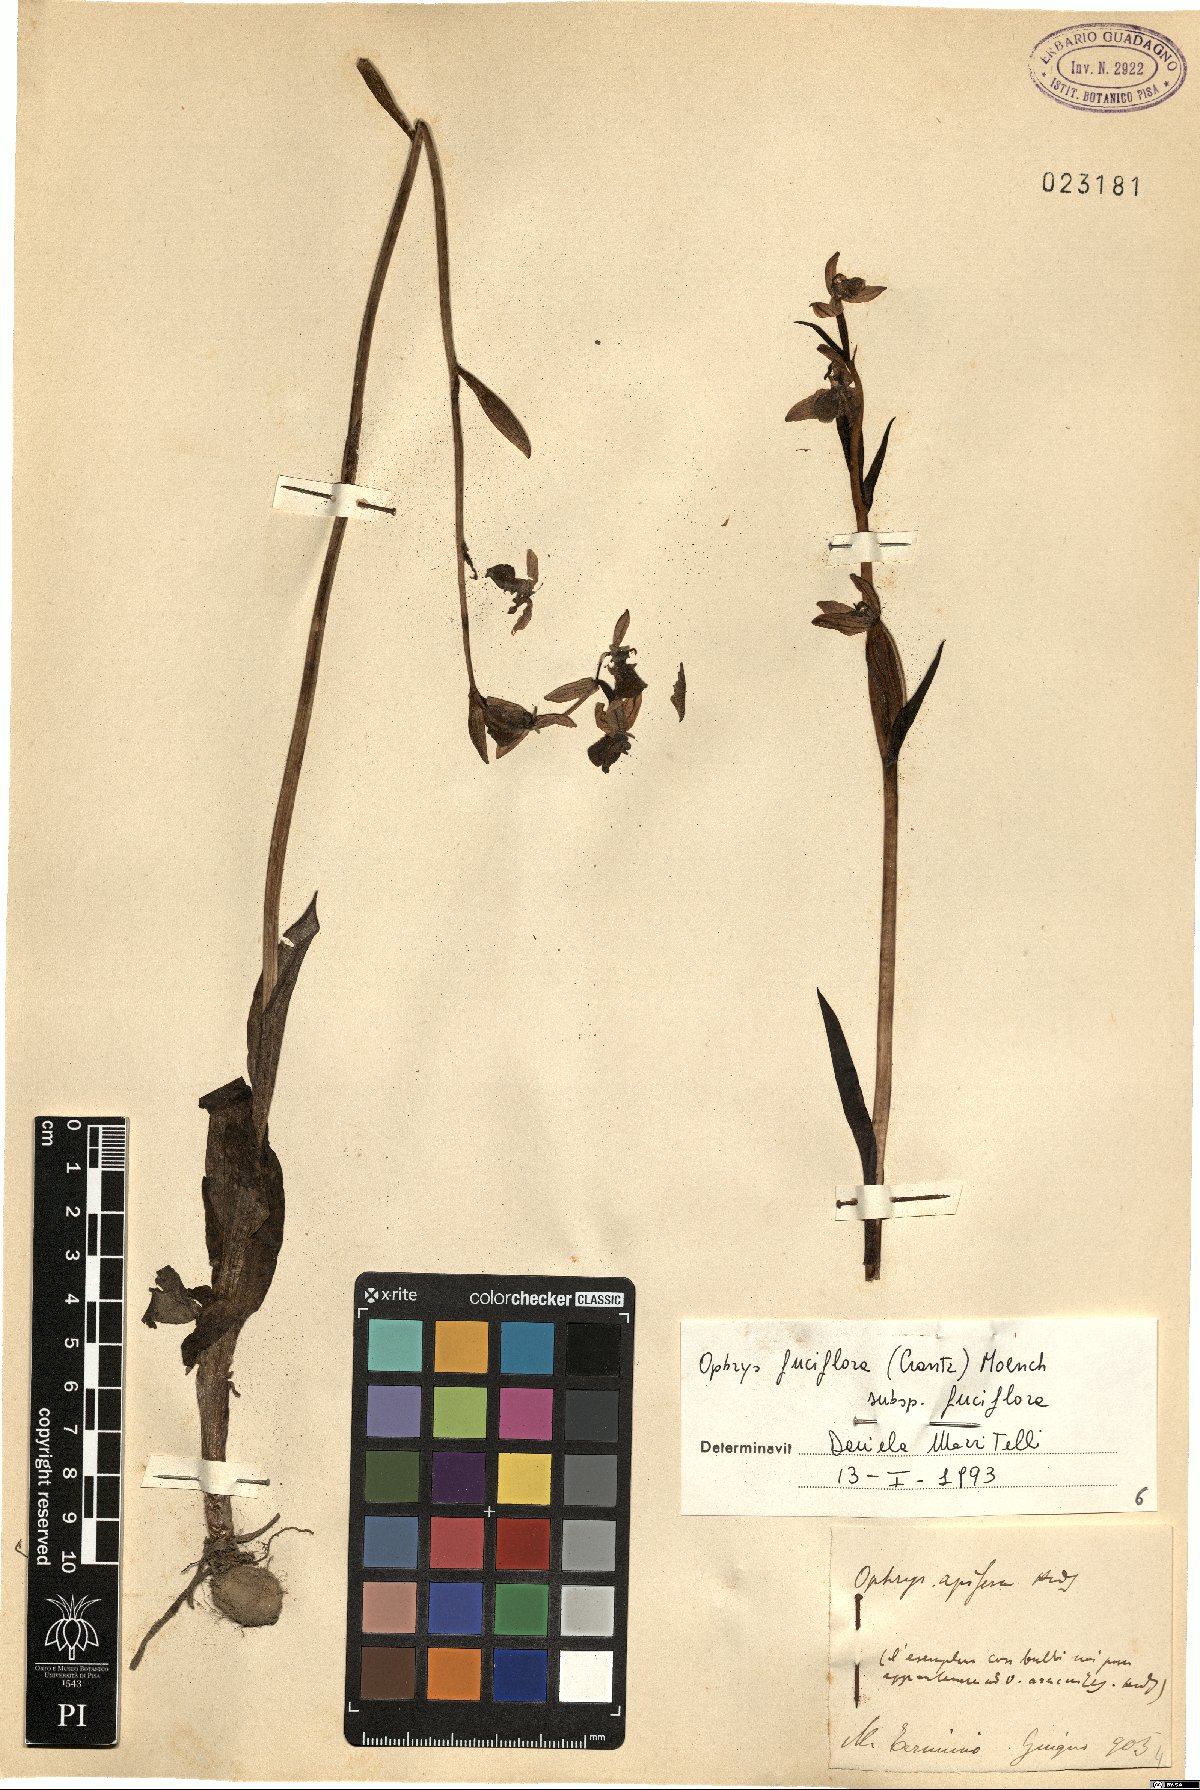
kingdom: Plantae
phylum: Tracheophyta
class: Liliopsida
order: Asparagales
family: Orchidaceae
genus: Ophrys
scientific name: Ophrys holosericea
